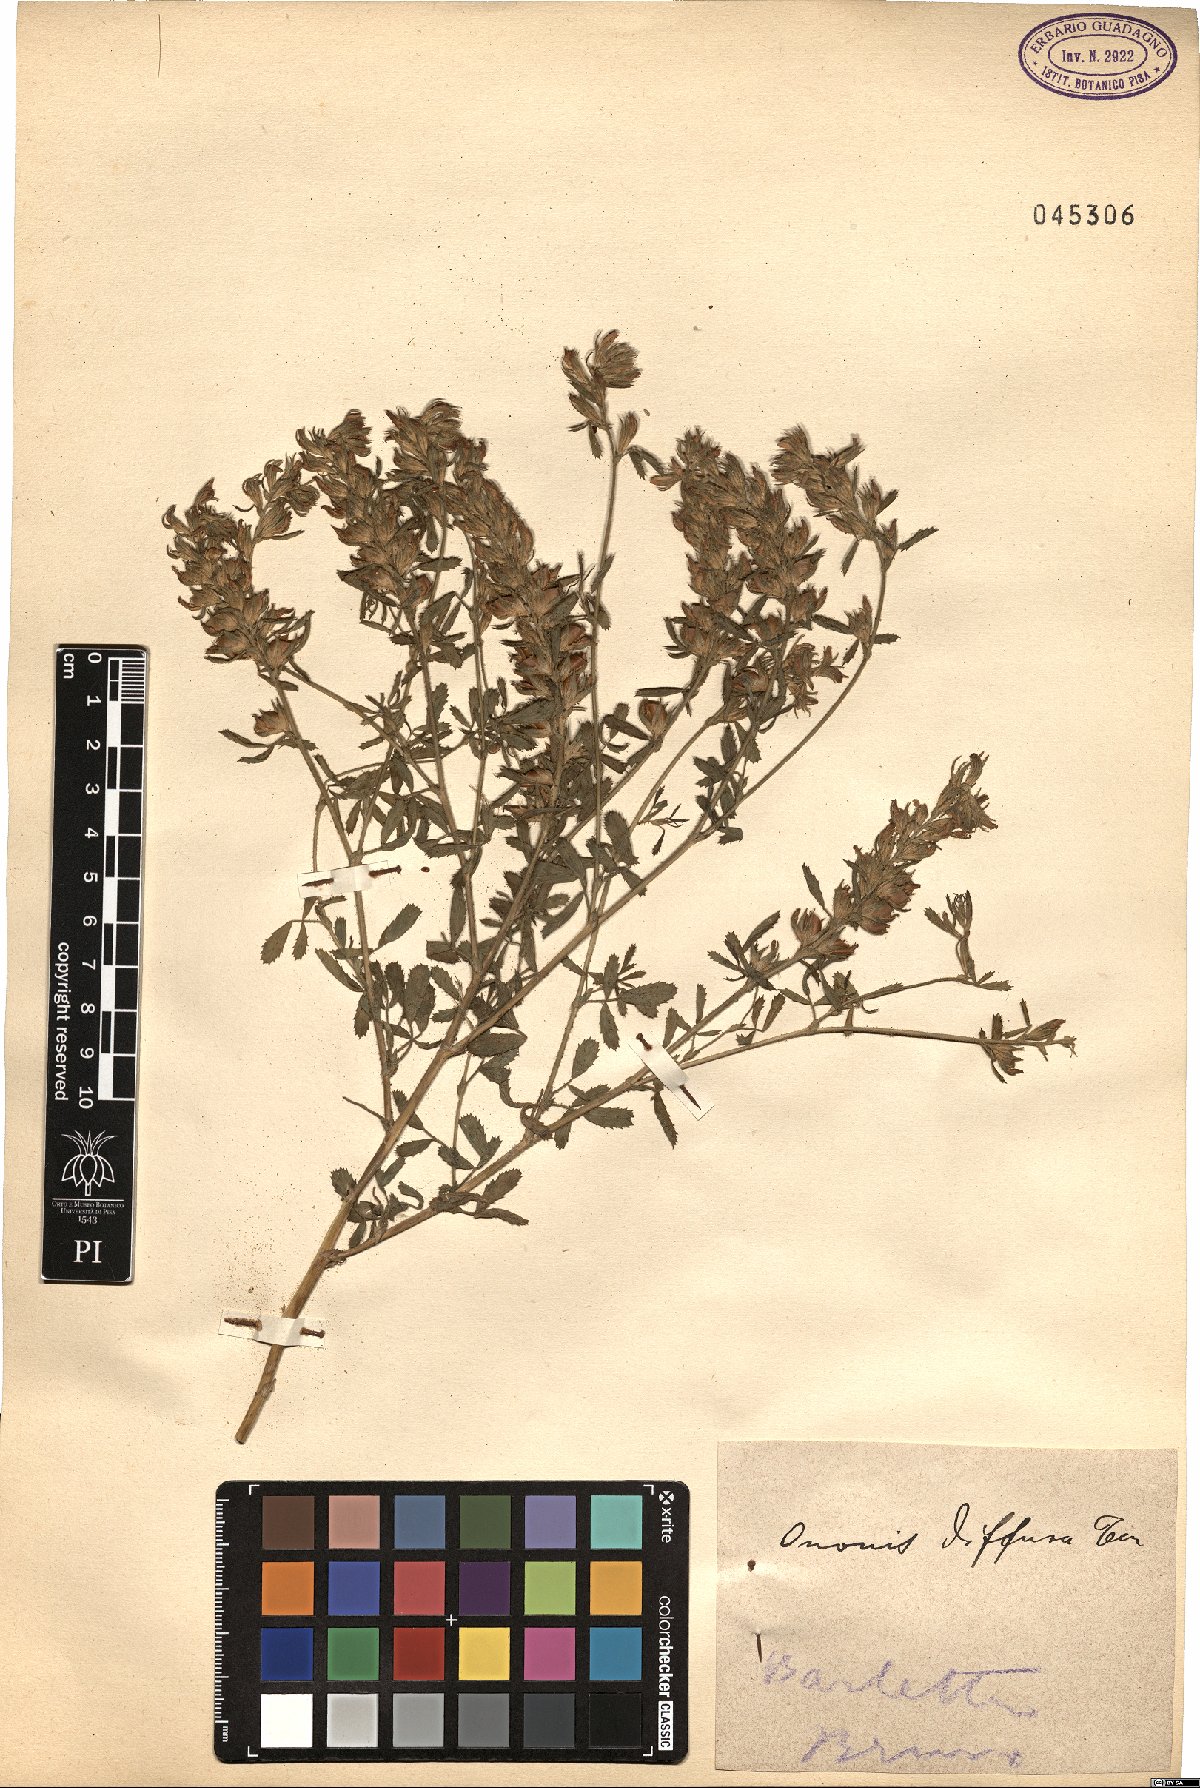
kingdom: Plantae
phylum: Tracheophyta
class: Magnoliopsida
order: Fabales
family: Fabaceae
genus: Ononis
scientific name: Ononis diffusa
